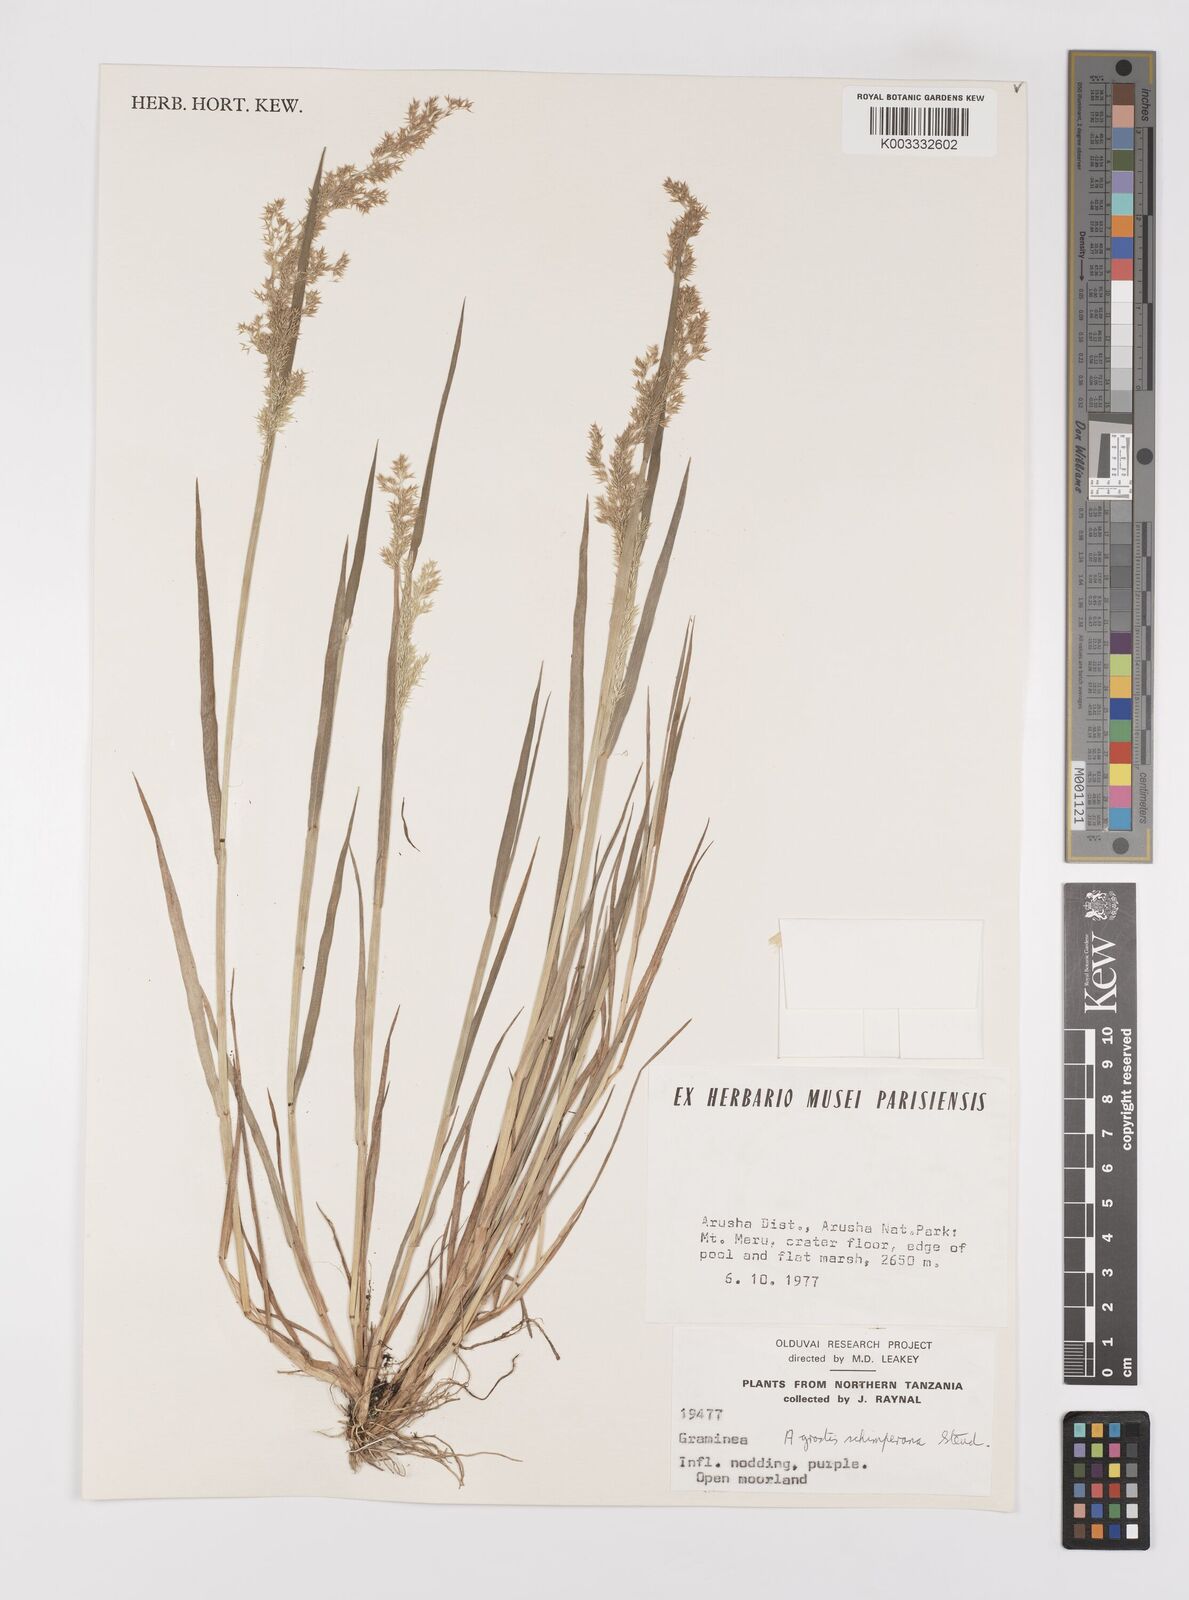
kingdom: Plantae
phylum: Tracheophyta
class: Liliopsida
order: Poales
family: Poaceae
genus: Polypogon
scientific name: Polypogon schimperianus
